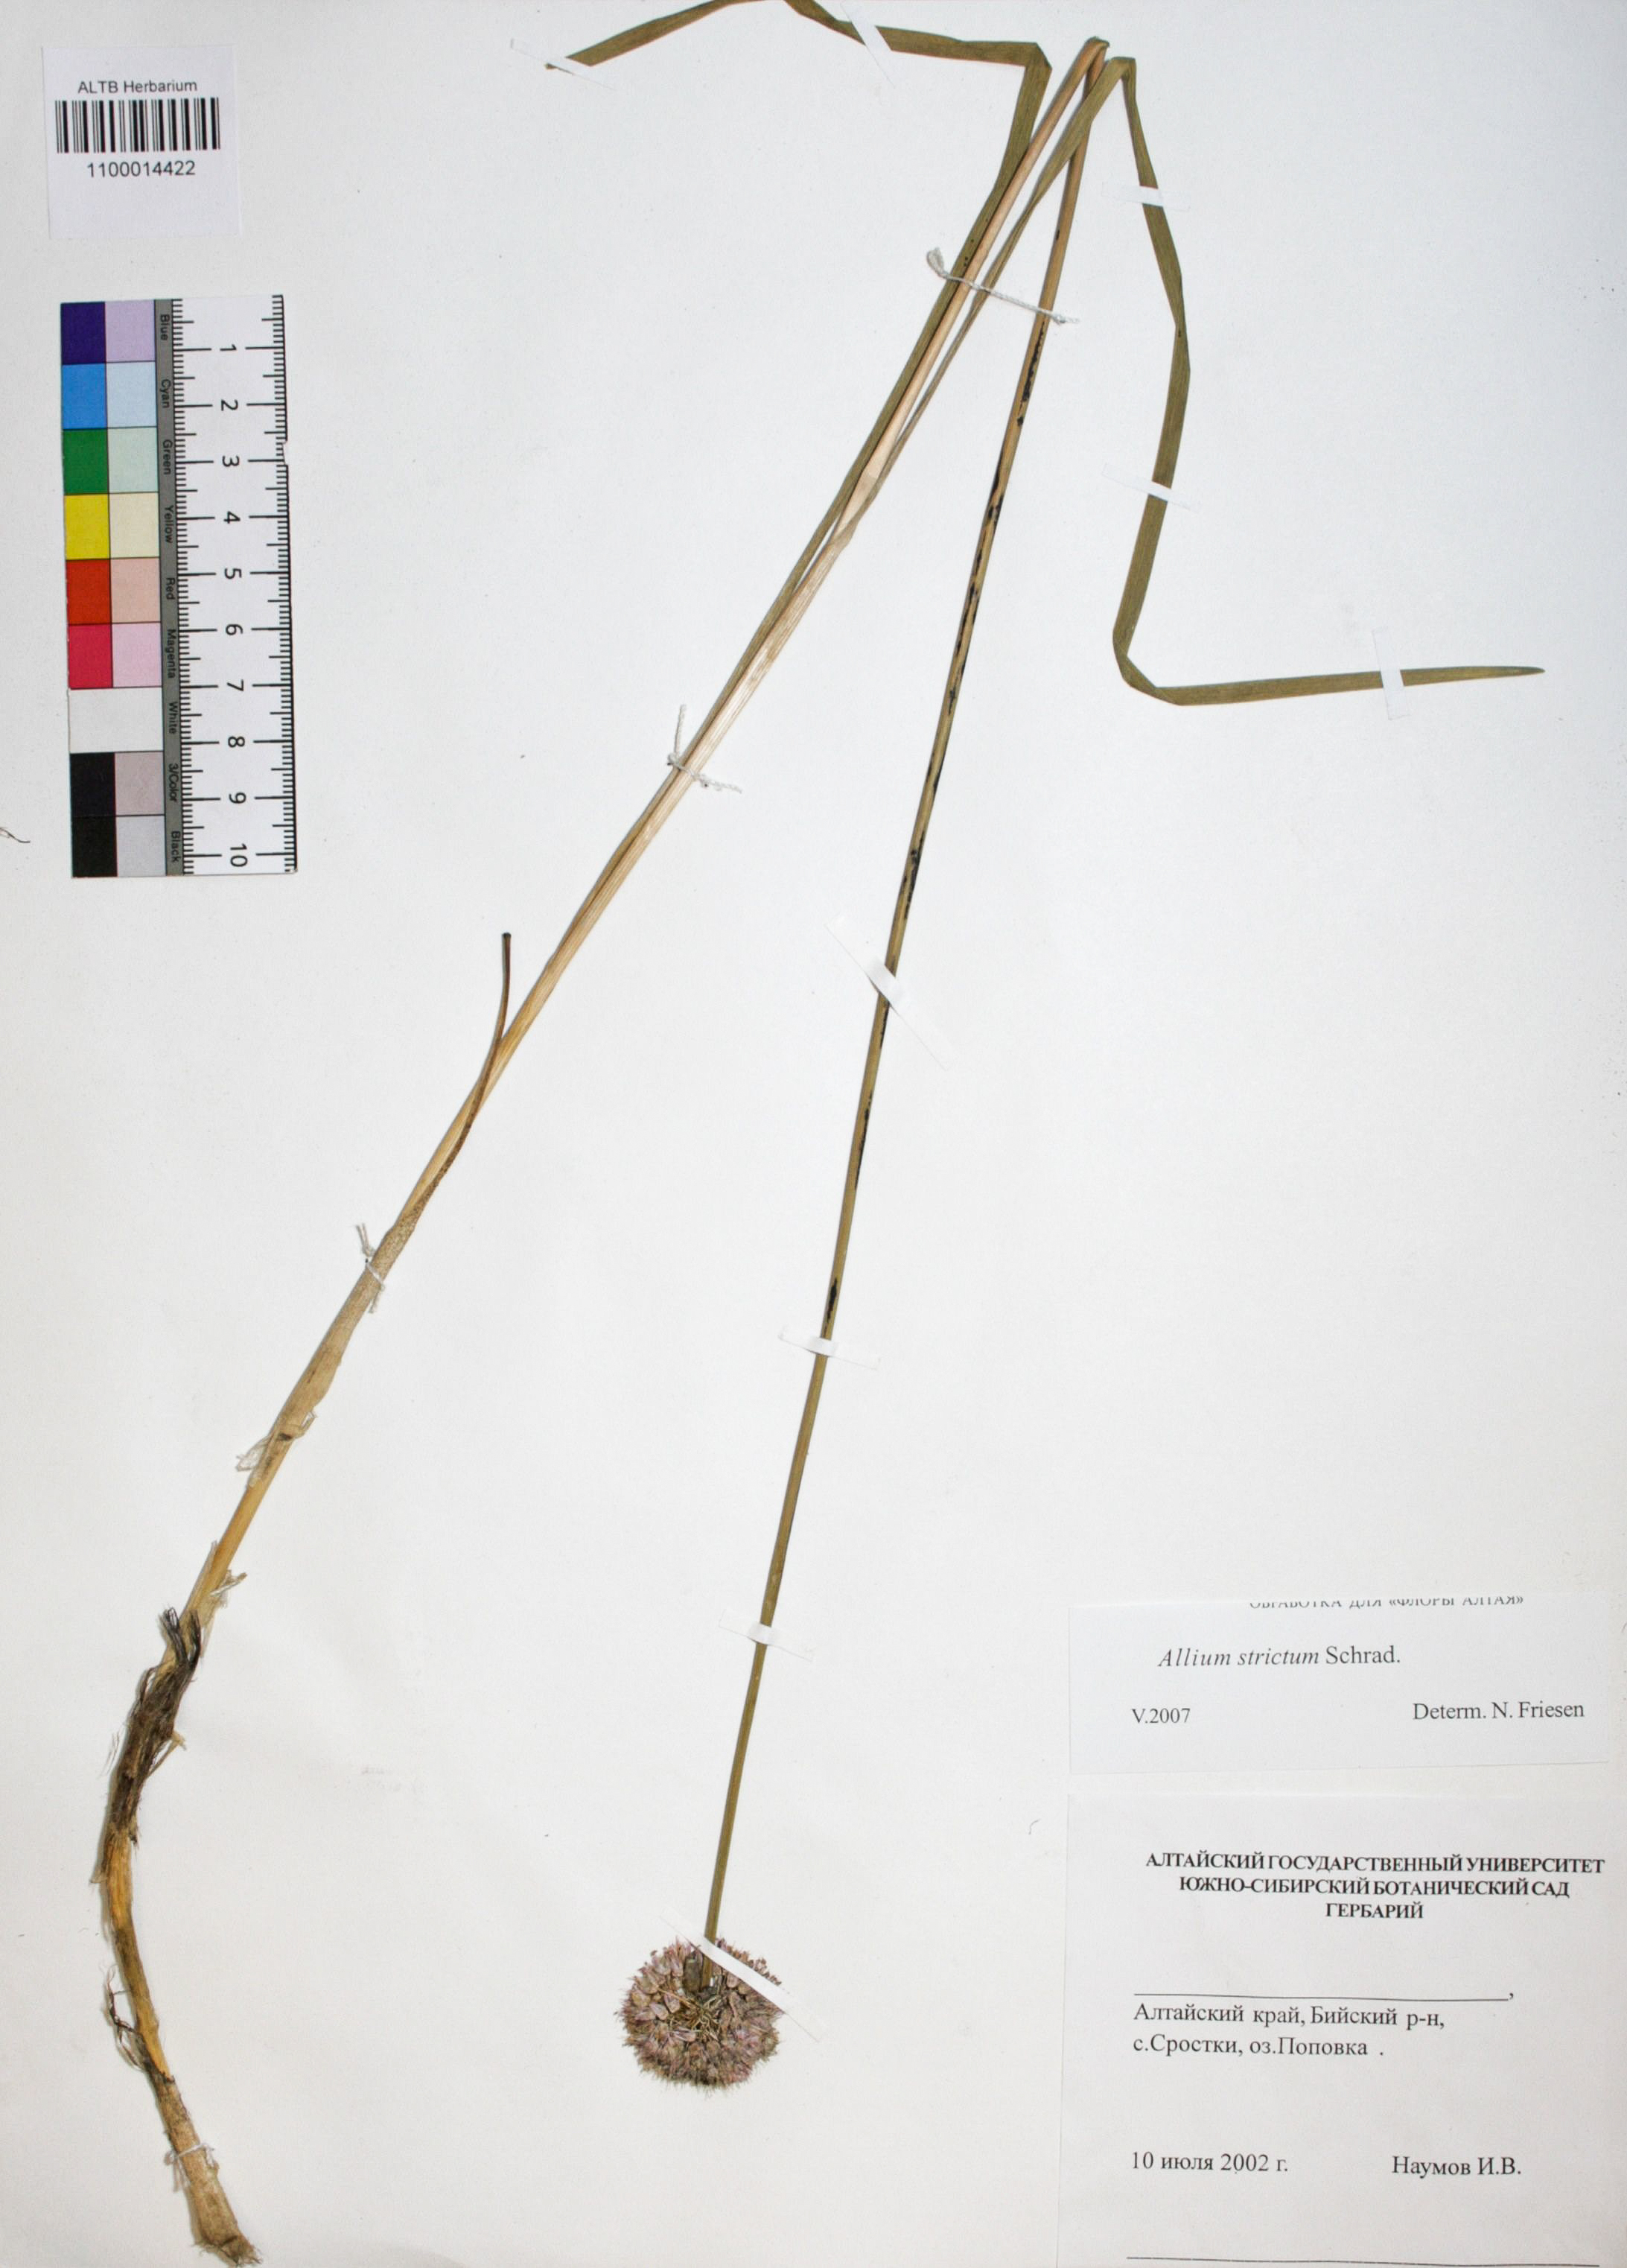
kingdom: Plantae
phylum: Tracheophyta
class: Liliopsida
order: Asparagales
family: Amaryllidaceae
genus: Allium
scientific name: Allium strictum
